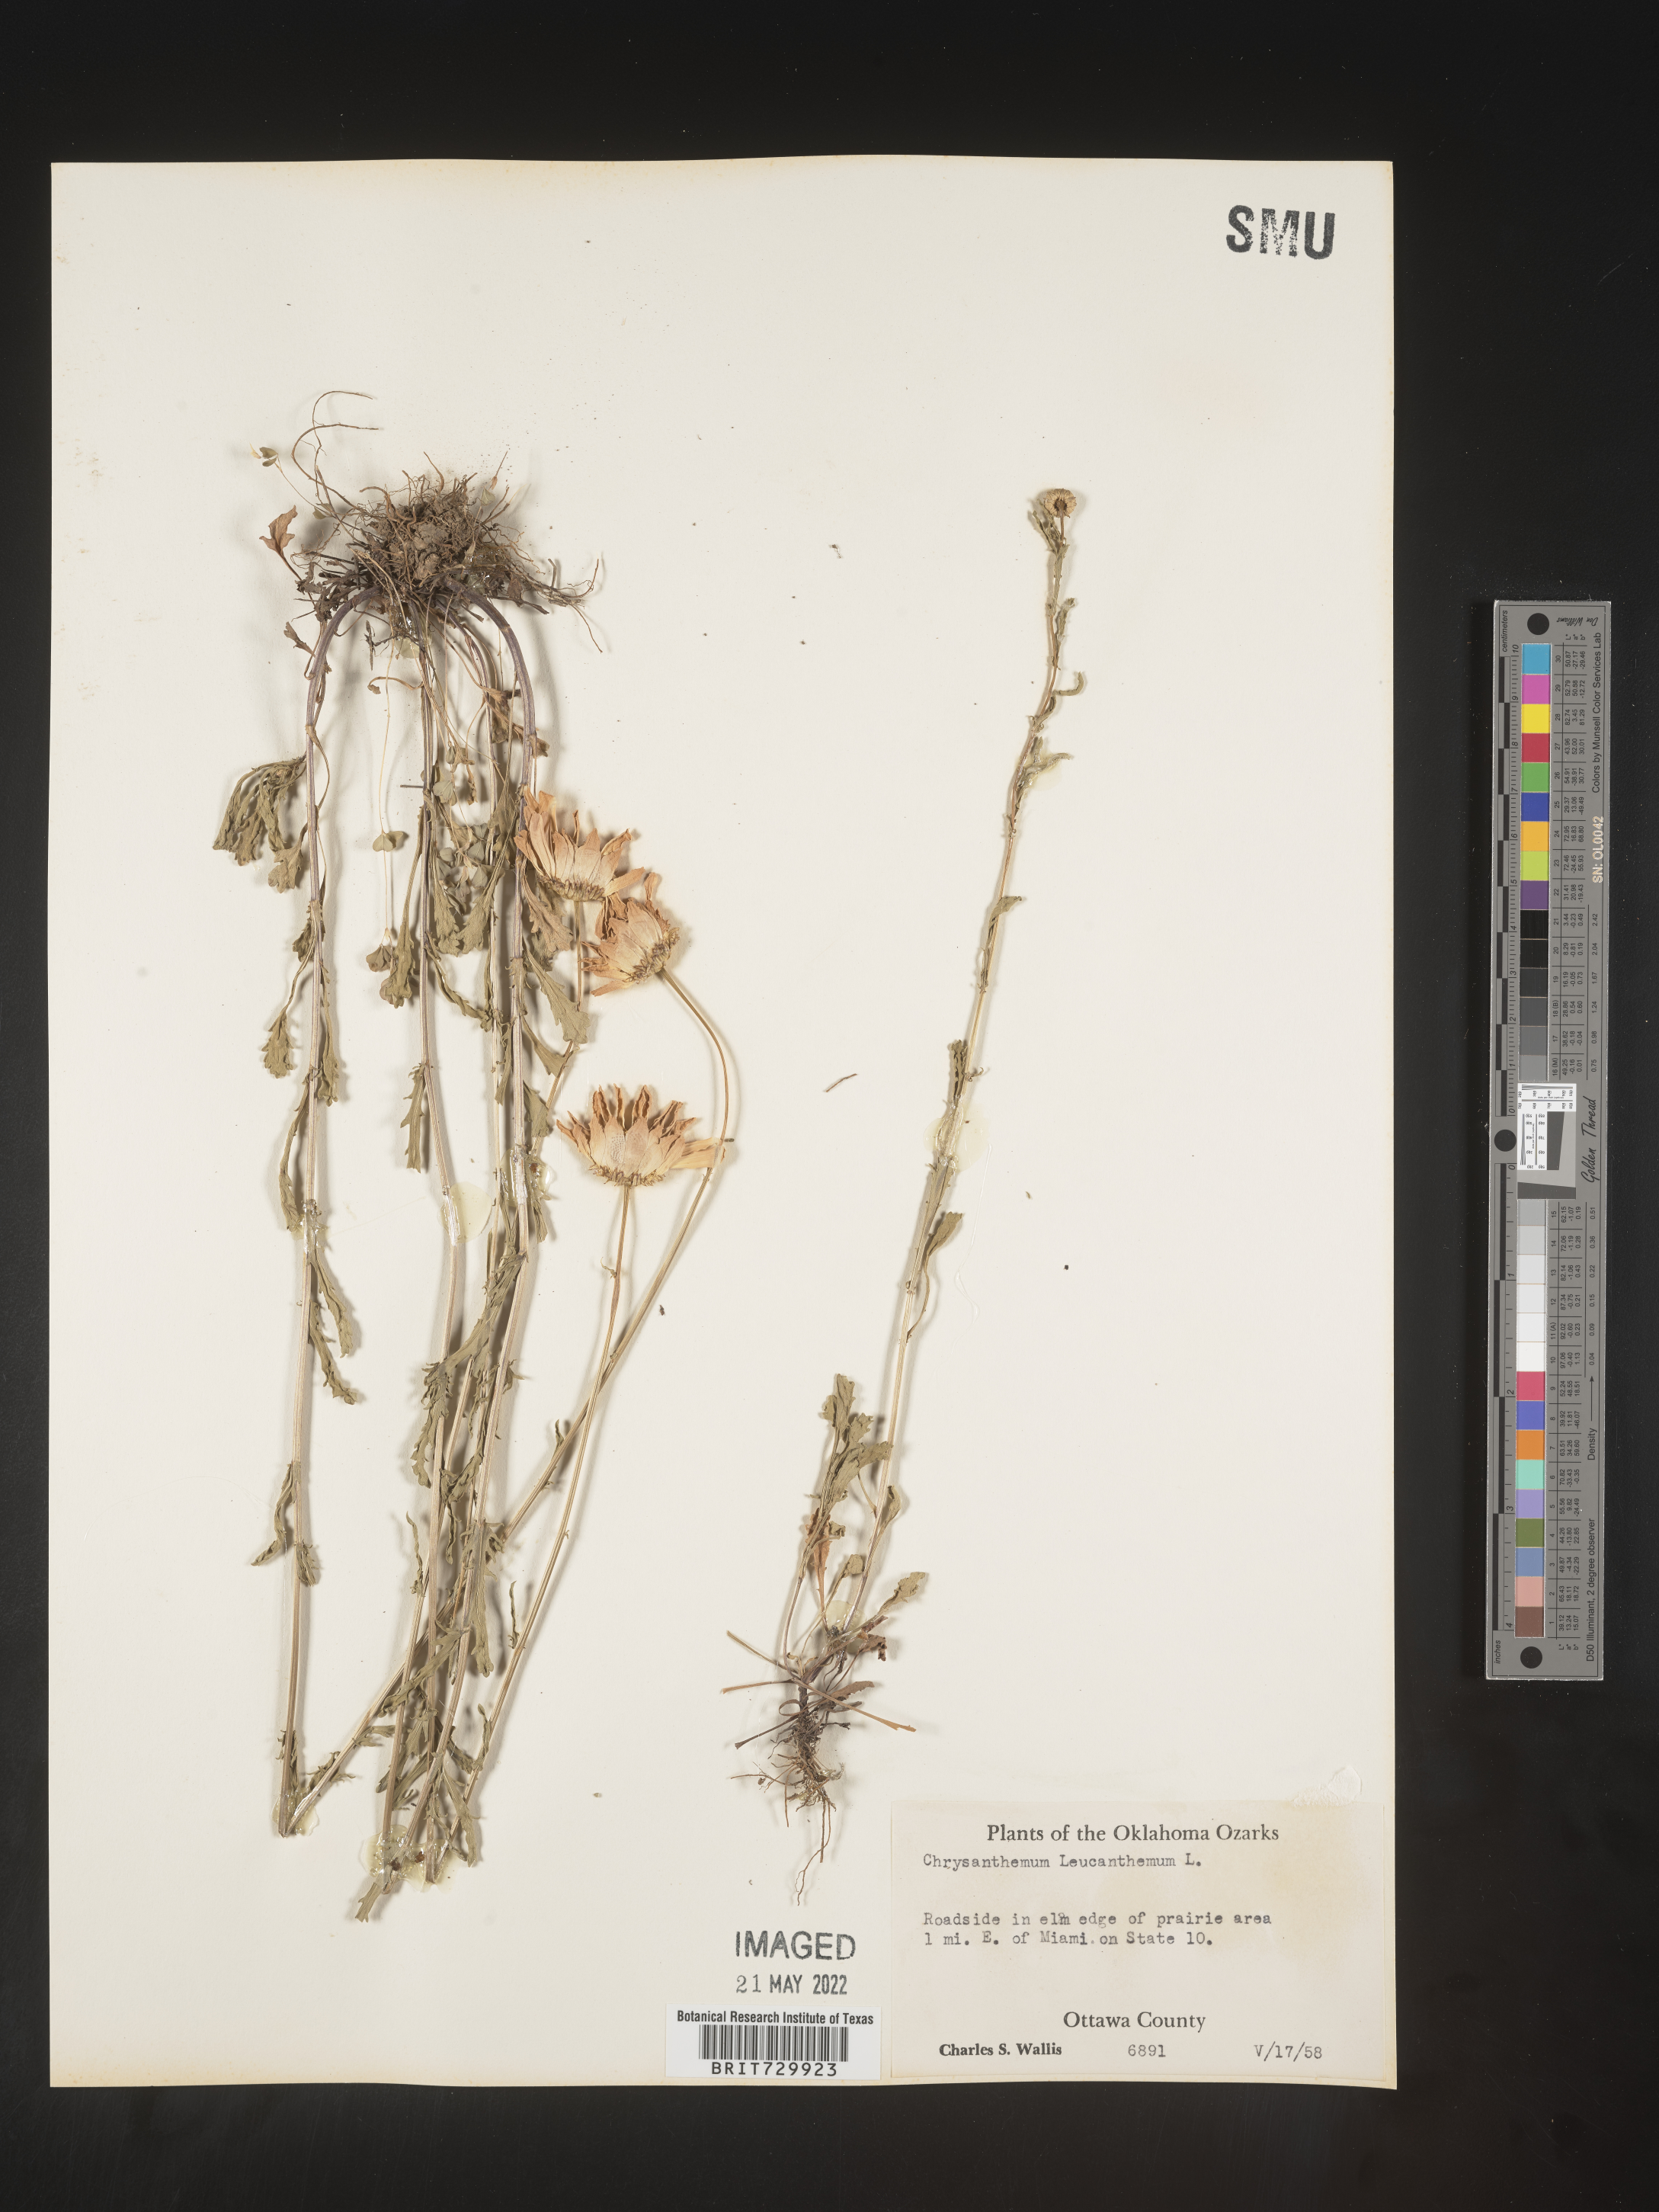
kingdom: Plantae
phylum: Tracheophyta
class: Magnoliopsida
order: Asterales
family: Asteraceae
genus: Leucanthemum
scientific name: Leucanthemum vulgare
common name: Oxeye daisy
